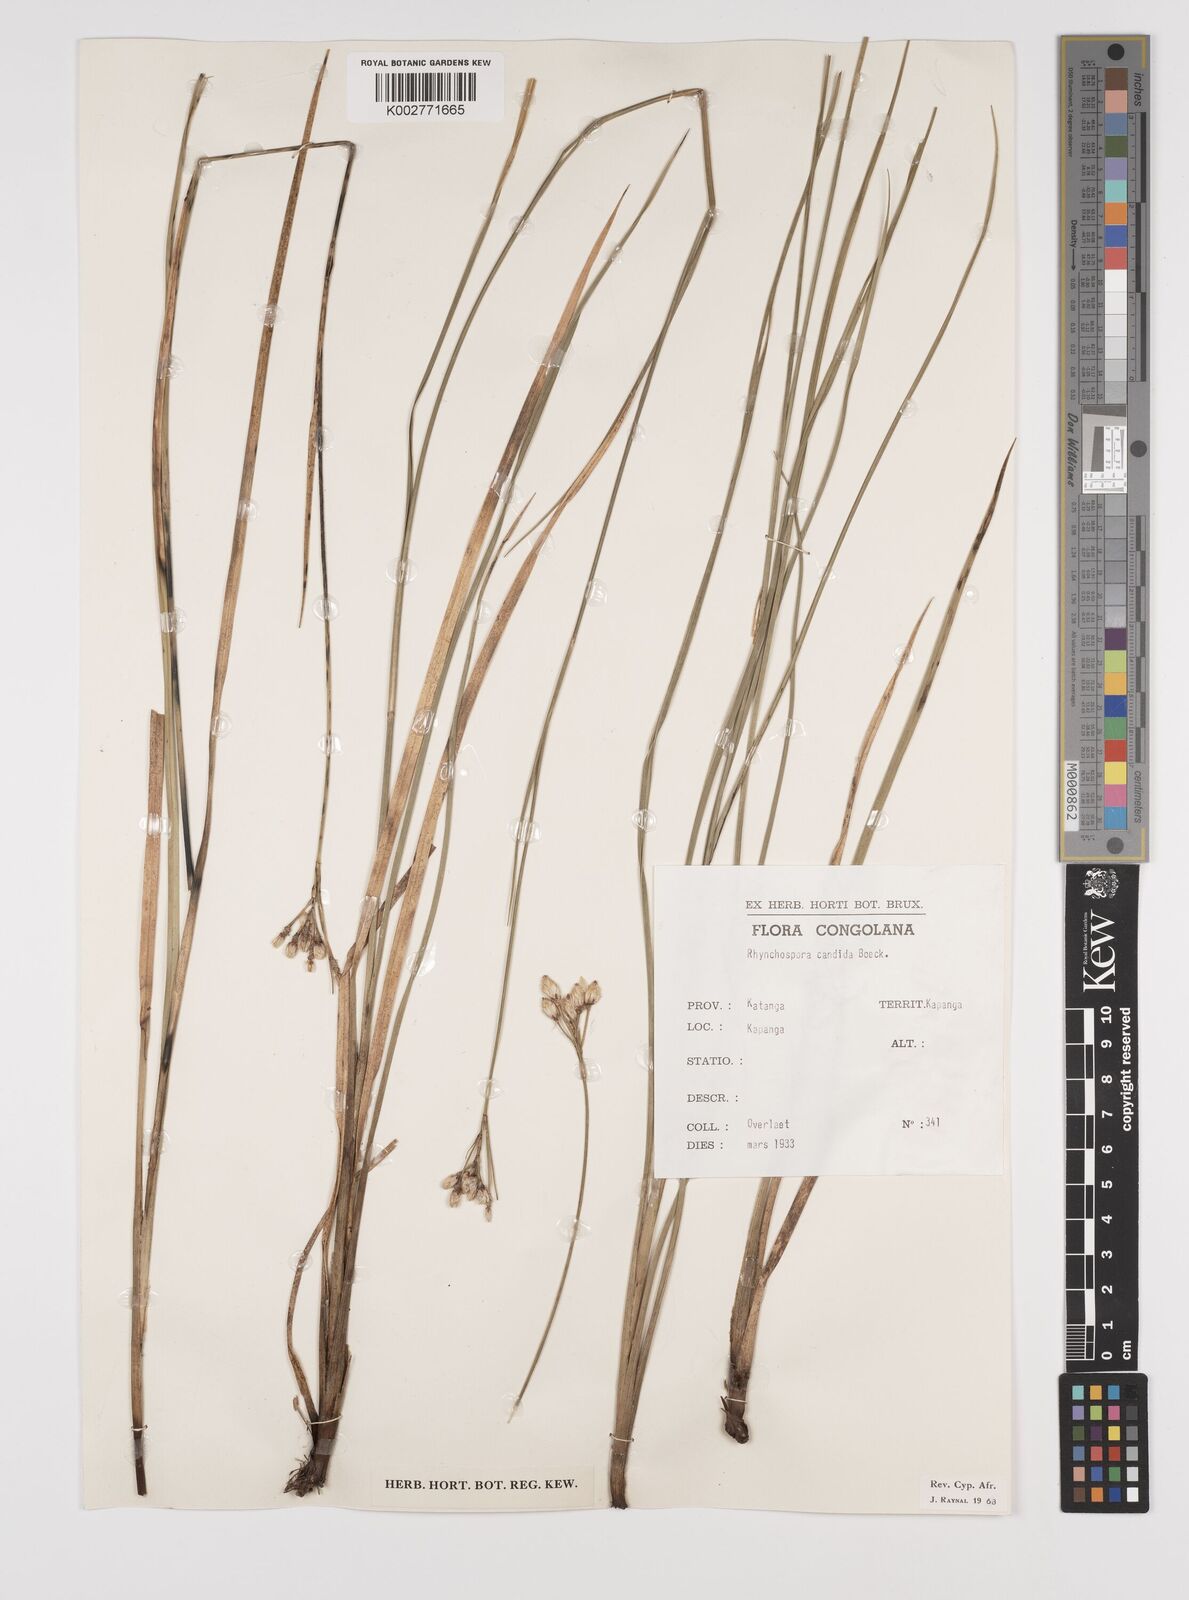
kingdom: Plantae
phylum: Tracheophyta
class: Liliopsida
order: Poales
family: Cyperaceae
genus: Rhynchospora
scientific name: Rhynchospora candida
